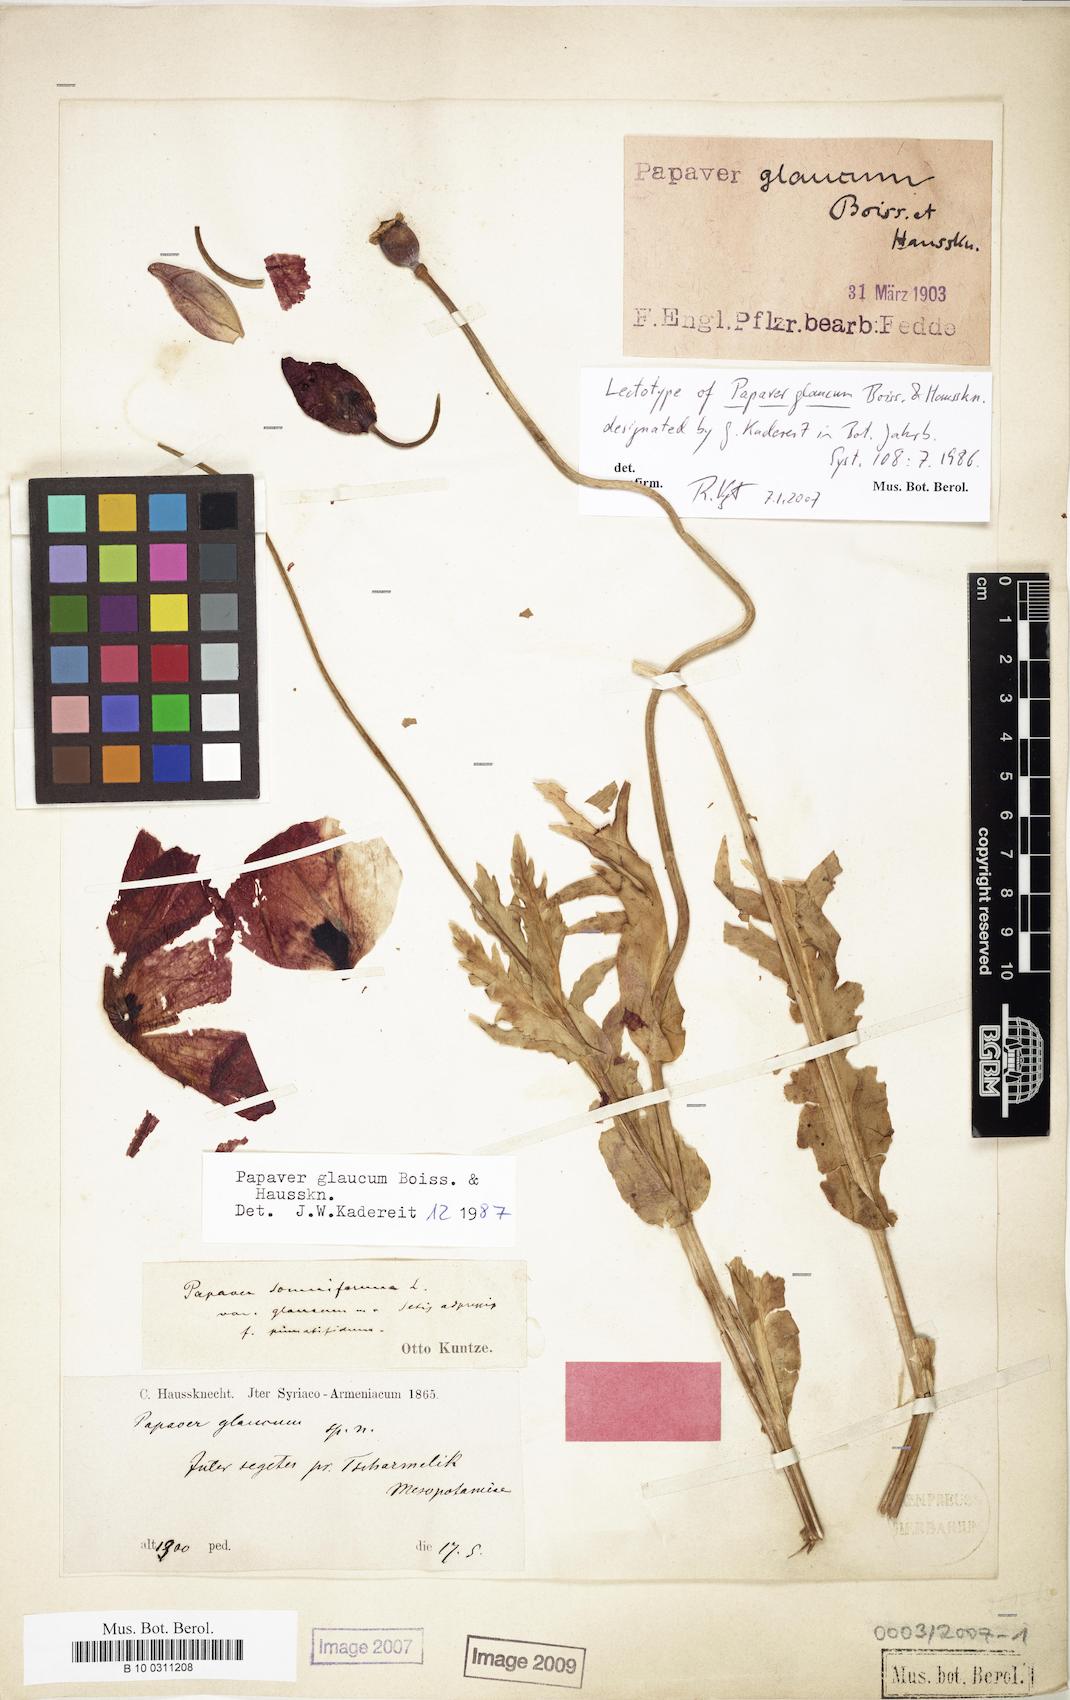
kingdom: Plantae
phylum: Tracheophyta
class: Magnoliopsida
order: Ranunculales
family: Papaveraceae
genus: Papaver
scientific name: Papaver glaucum
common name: Tulip poppy
